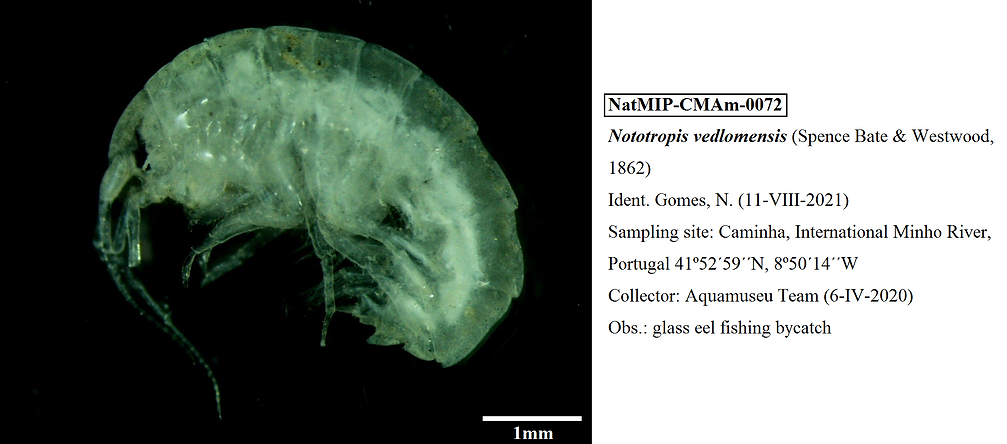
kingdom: Animalia
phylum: Arthropoda
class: Malacostraca
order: Amphipoda
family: Atylidae
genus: Nototropis
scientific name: Nototropis vedlomensis
